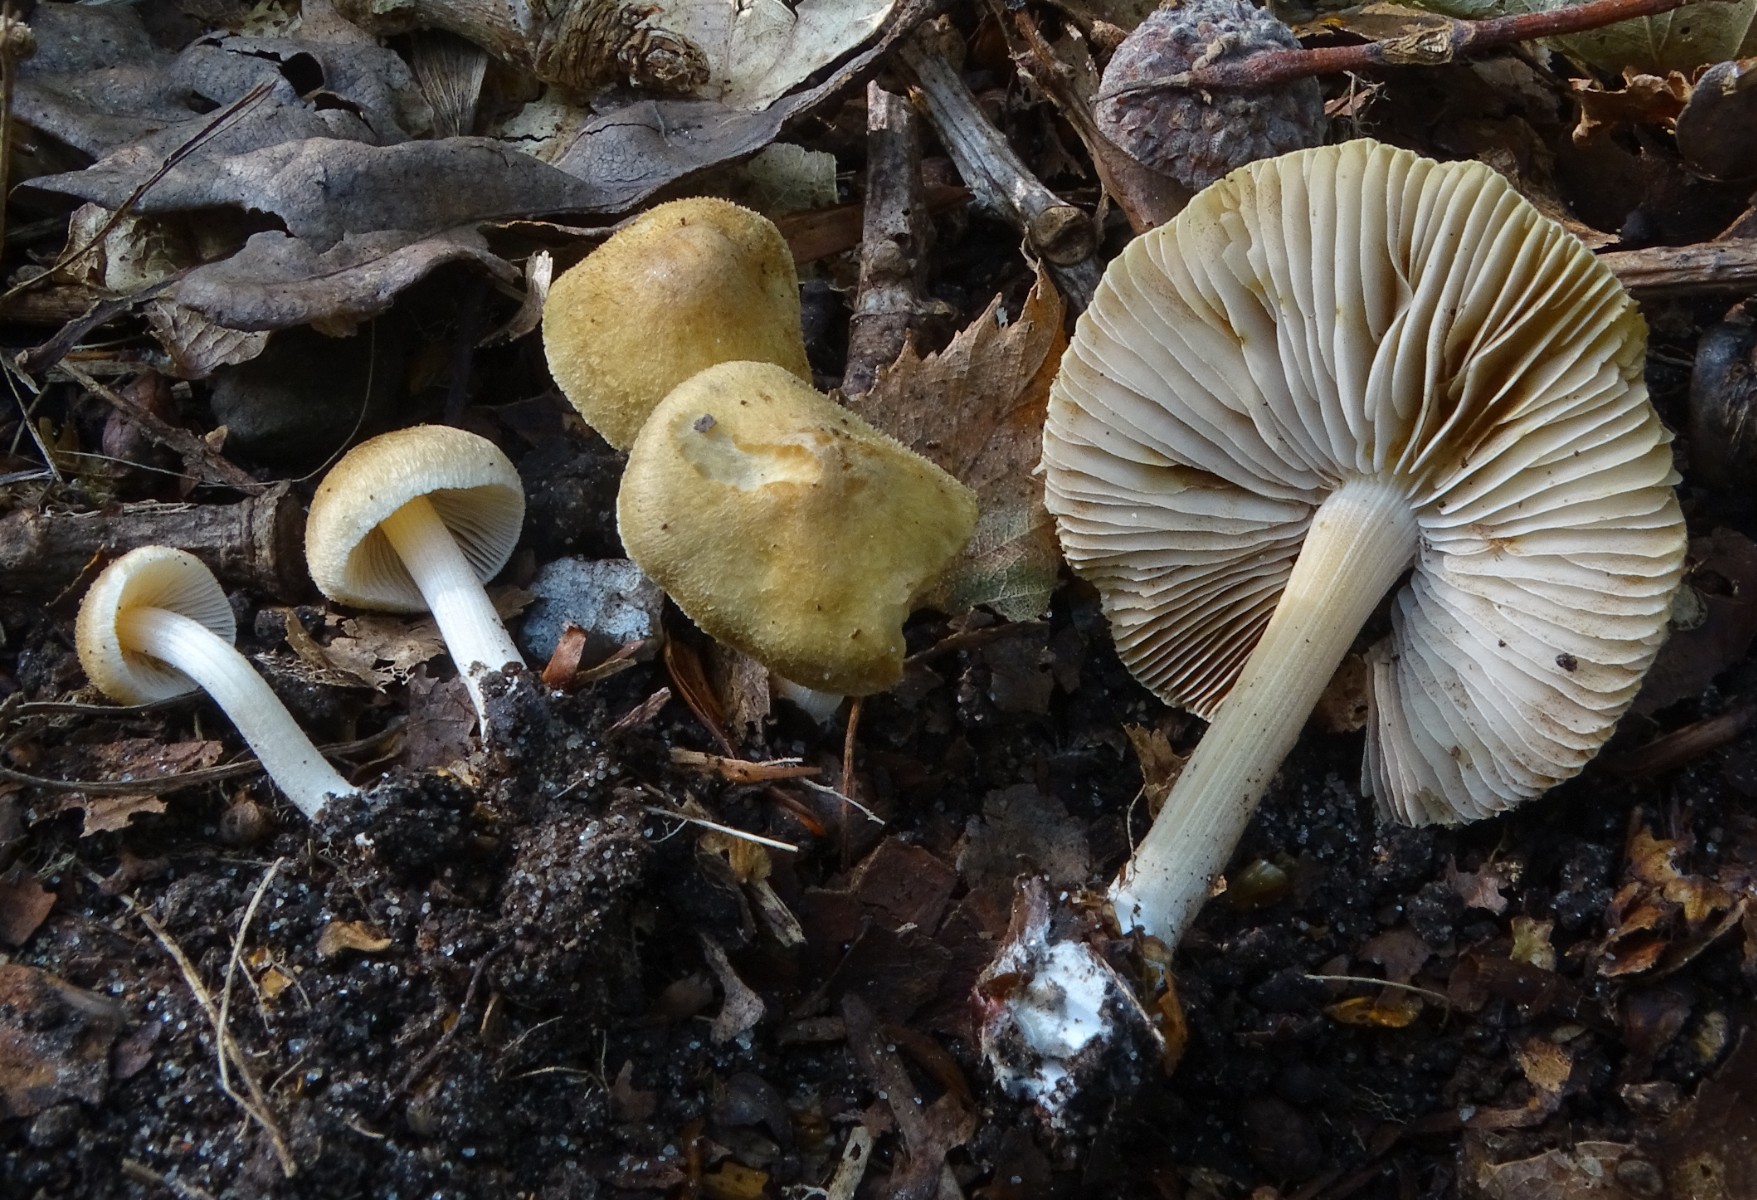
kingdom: Fungi
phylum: Basidiomycota
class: Agaricomycetes
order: Agaricales
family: Inocybaceae
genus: Inocybe
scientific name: Inocybe hirtella
